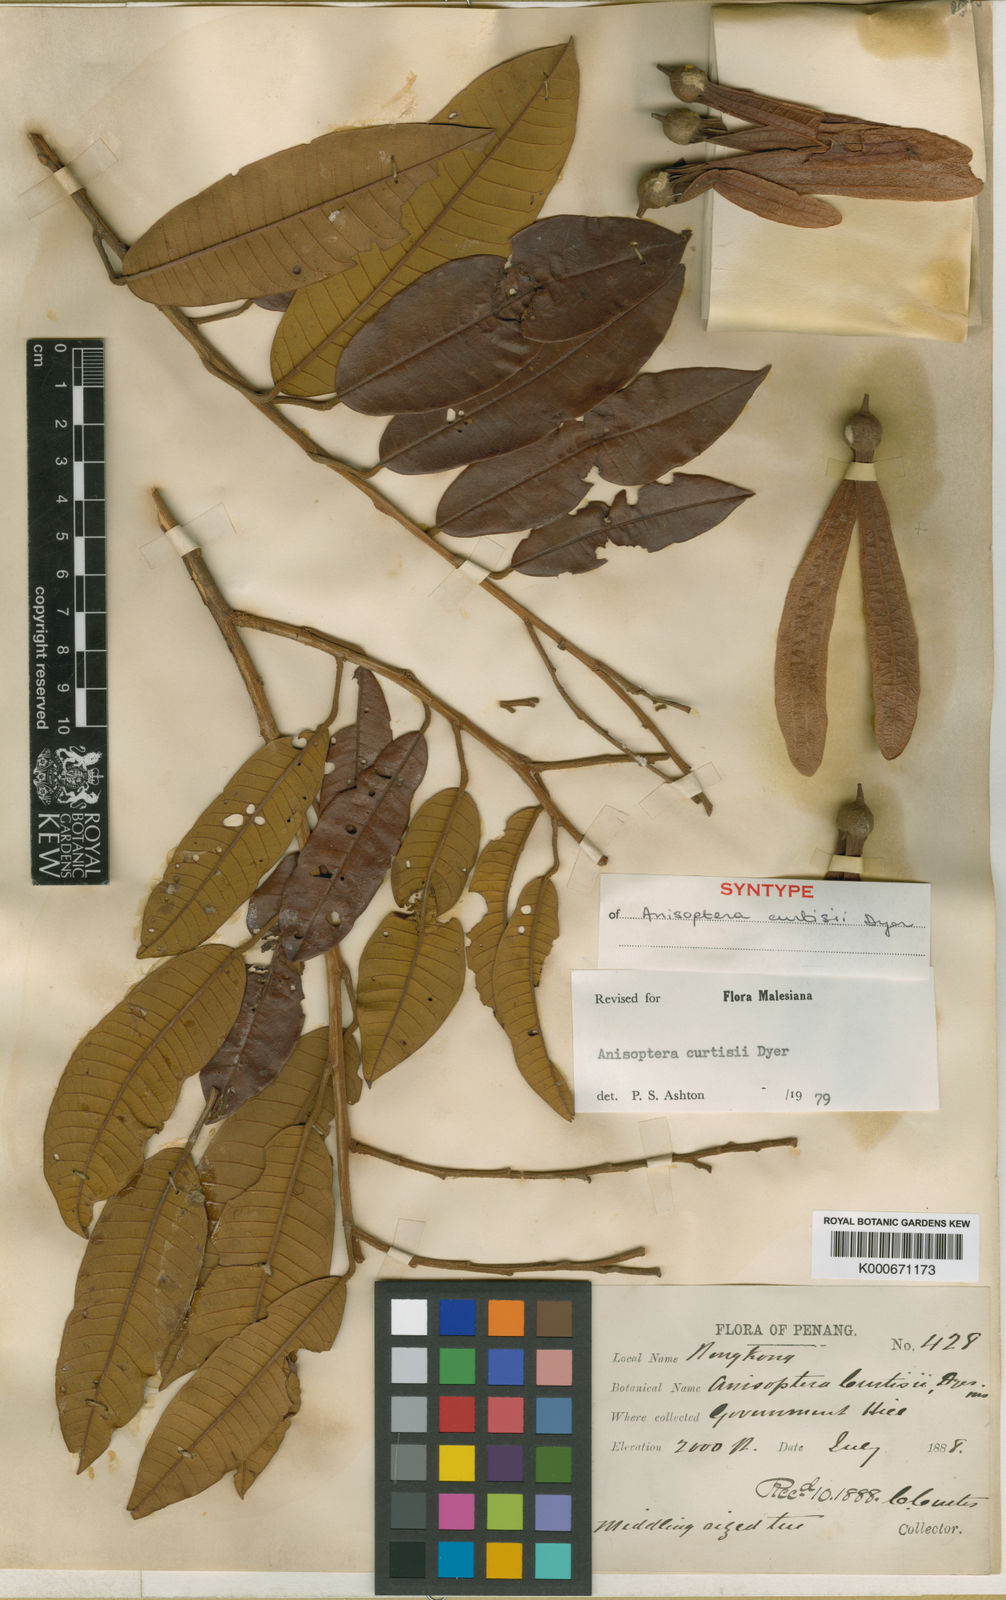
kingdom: Plantae
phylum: Tracheophyta
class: Magnoliopsida
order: Malvales
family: Dipterocarpaceae
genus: Anisoptera
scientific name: Anisoptera curtisii
